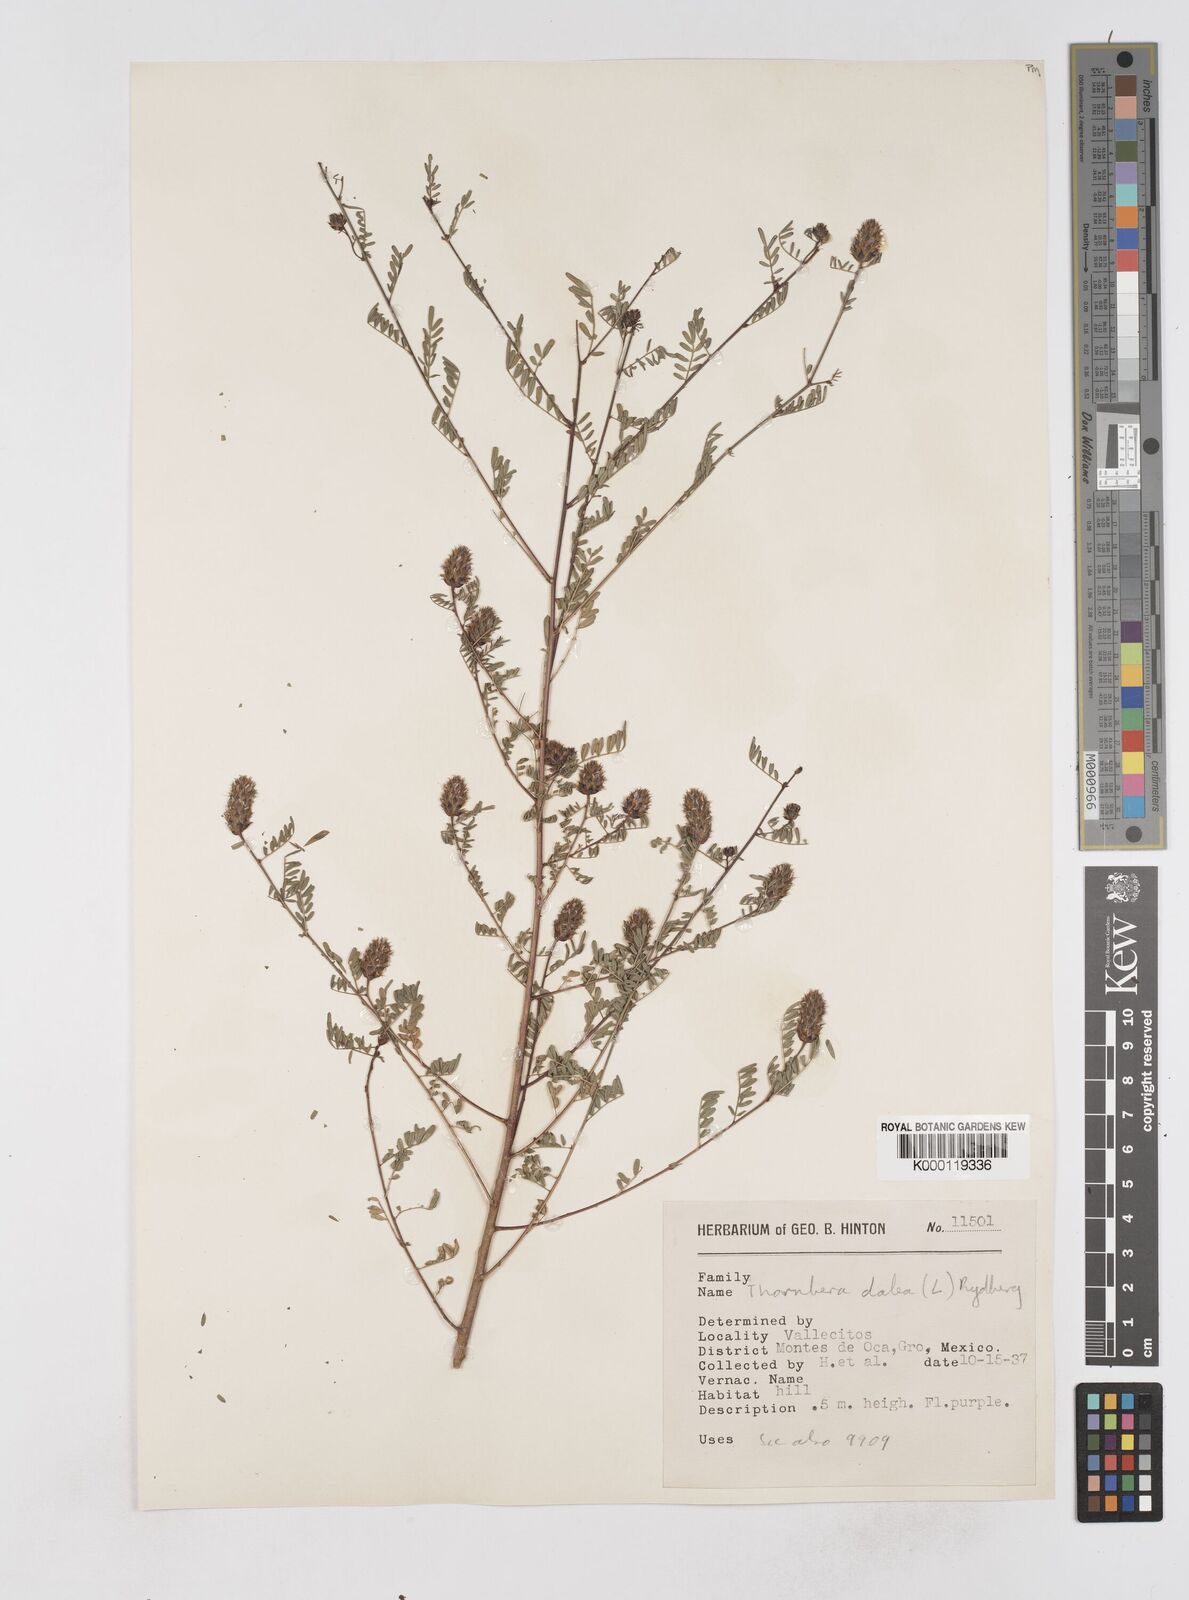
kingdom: Plantae
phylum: Tracheophyta
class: Magnoliopsida
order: Fabales
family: Fabaceae
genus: Dalea
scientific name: Dalea cliffortiana
